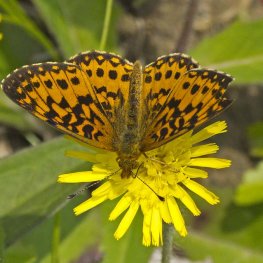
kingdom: Animalia
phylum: Arthropoda
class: Insecta
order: Lepidoptera
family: Nymphalidae
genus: Boloria
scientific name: Boloria selene
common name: Silver-bordered Fritillary
